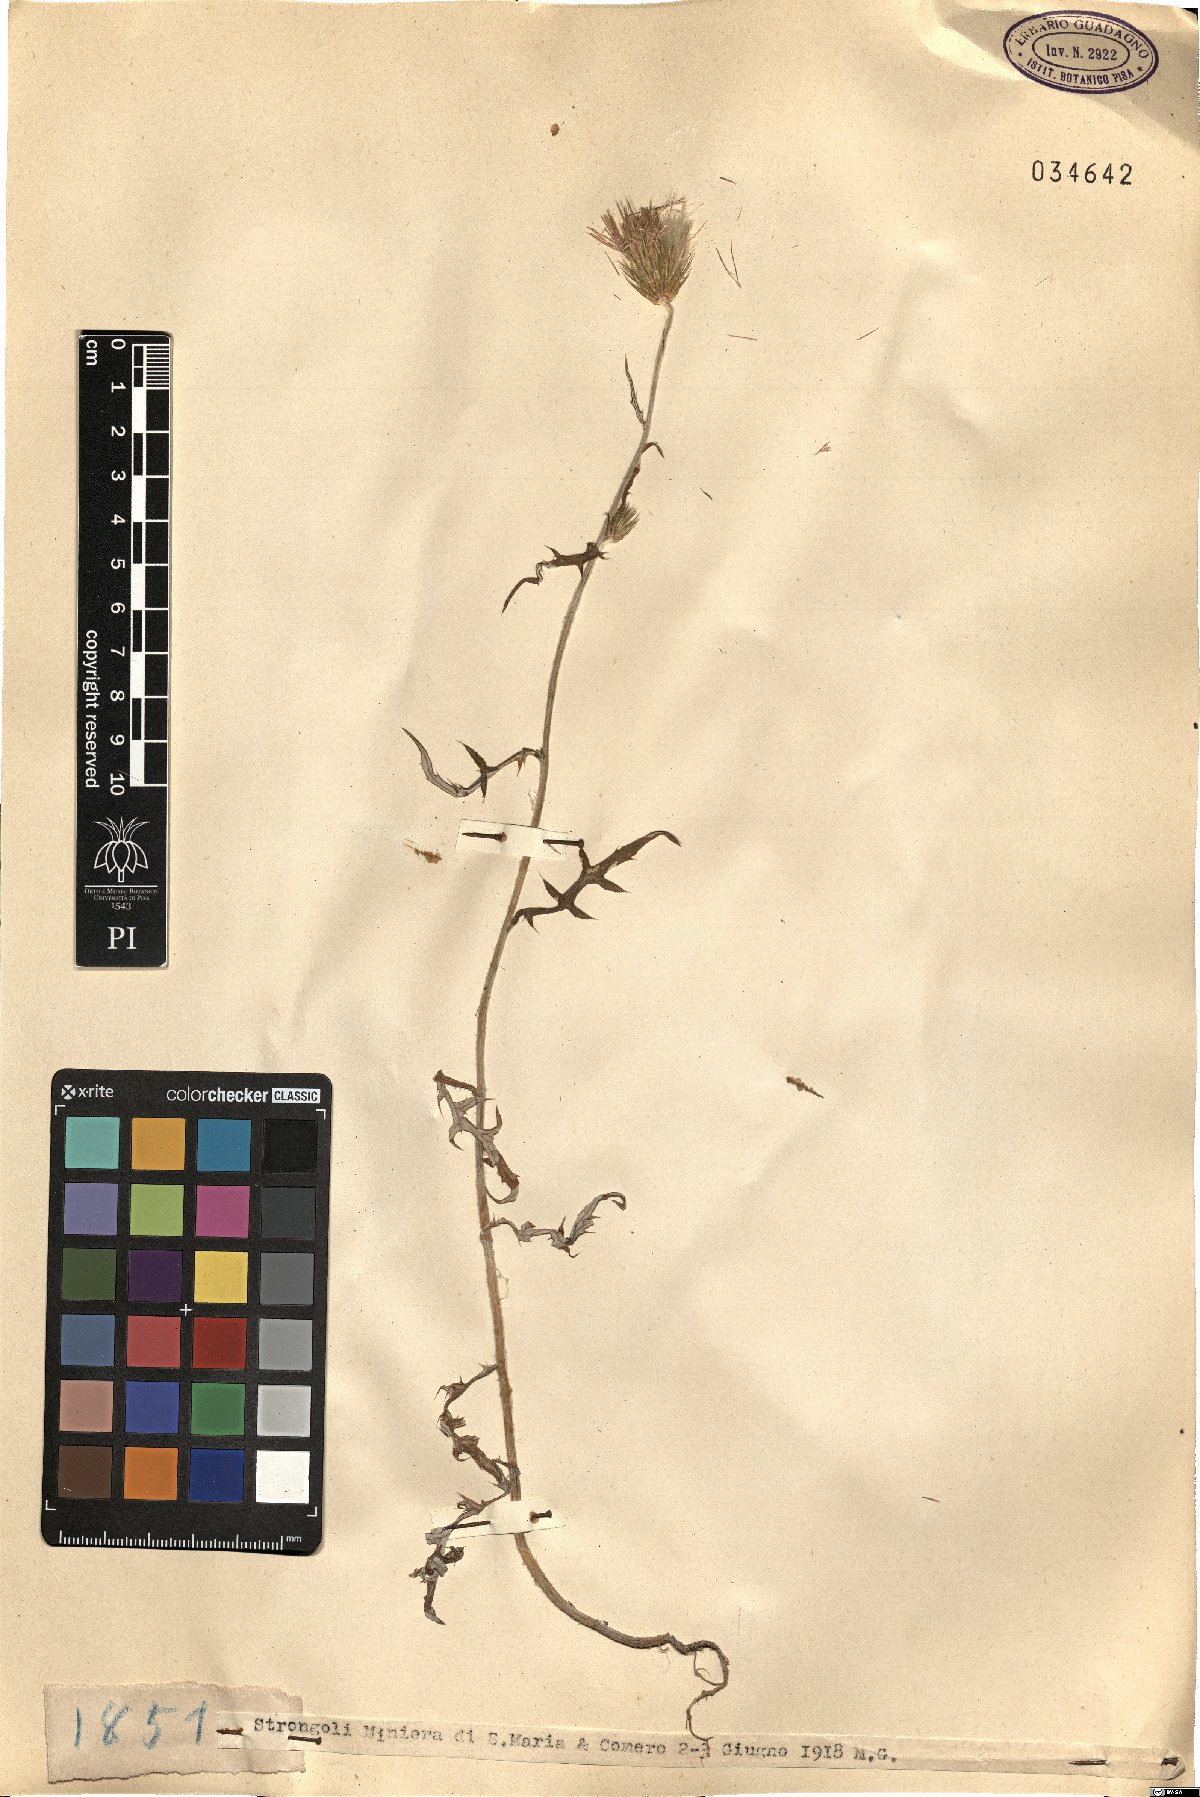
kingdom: Plantae
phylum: Tracheophyta
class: Magnoliopsida
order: Asterales
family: Asteraceae
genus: Tyrimnus
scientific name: Tyrimnus
